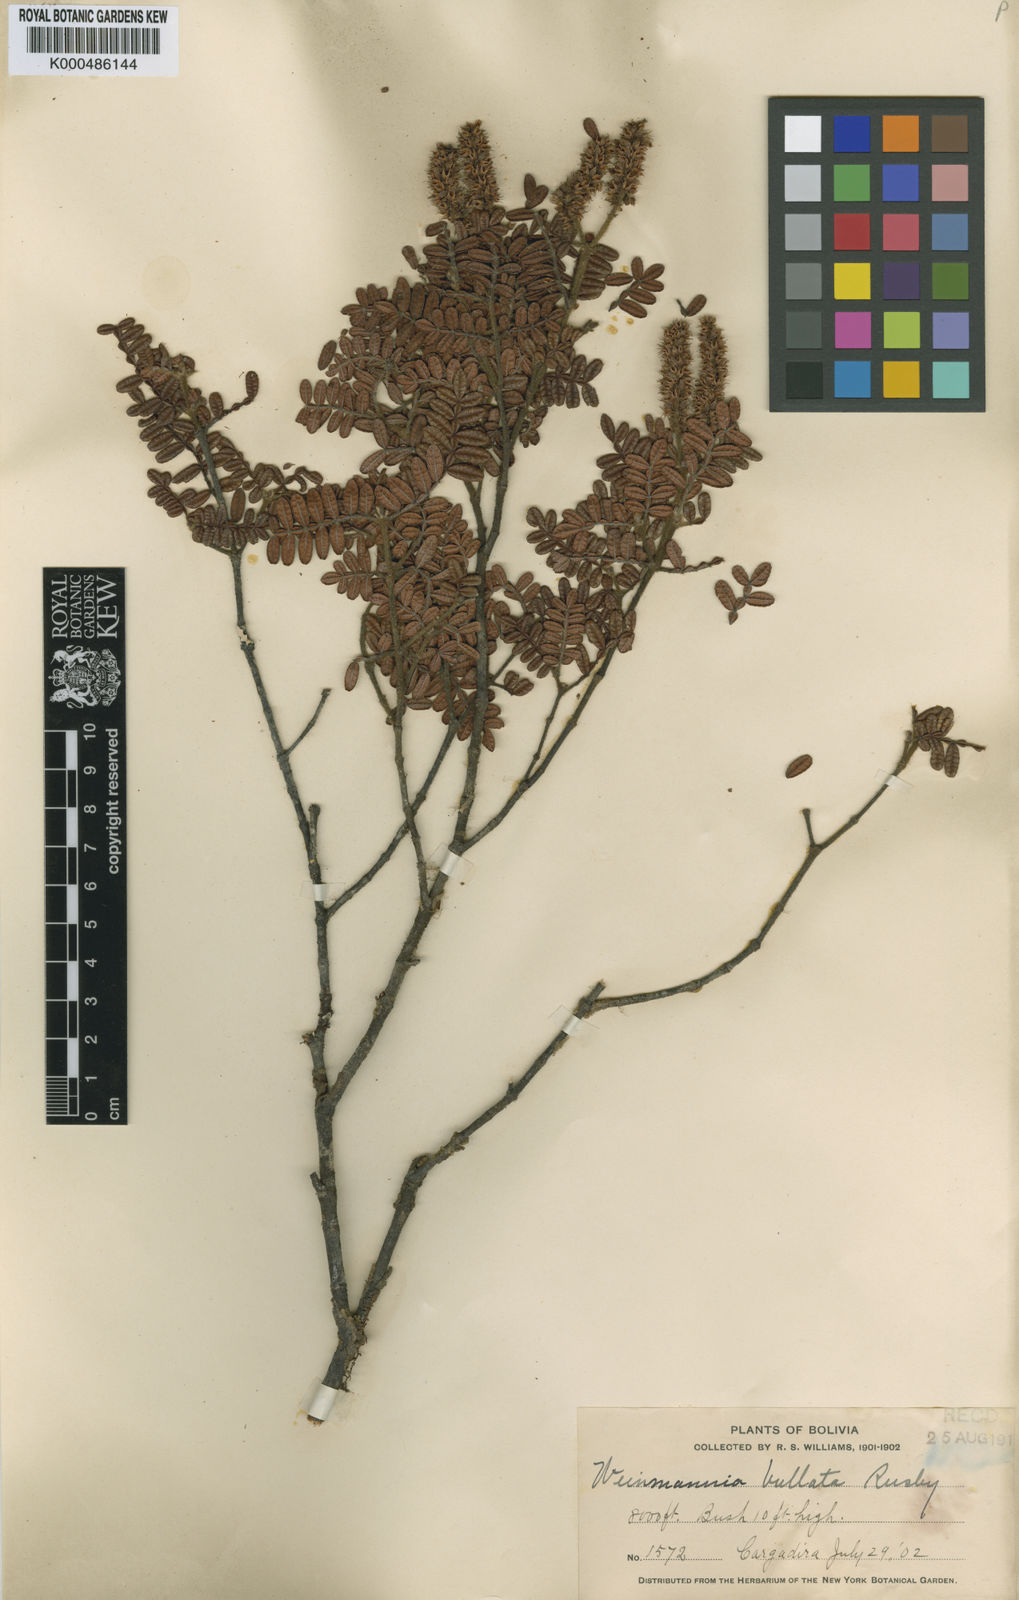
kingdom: Plantae
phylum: Tracheophyta
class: Magnoliopsida
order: Oxalidales
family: Cunoniaceae
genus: Weinmannia
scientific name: Weinmannia haenkeana
